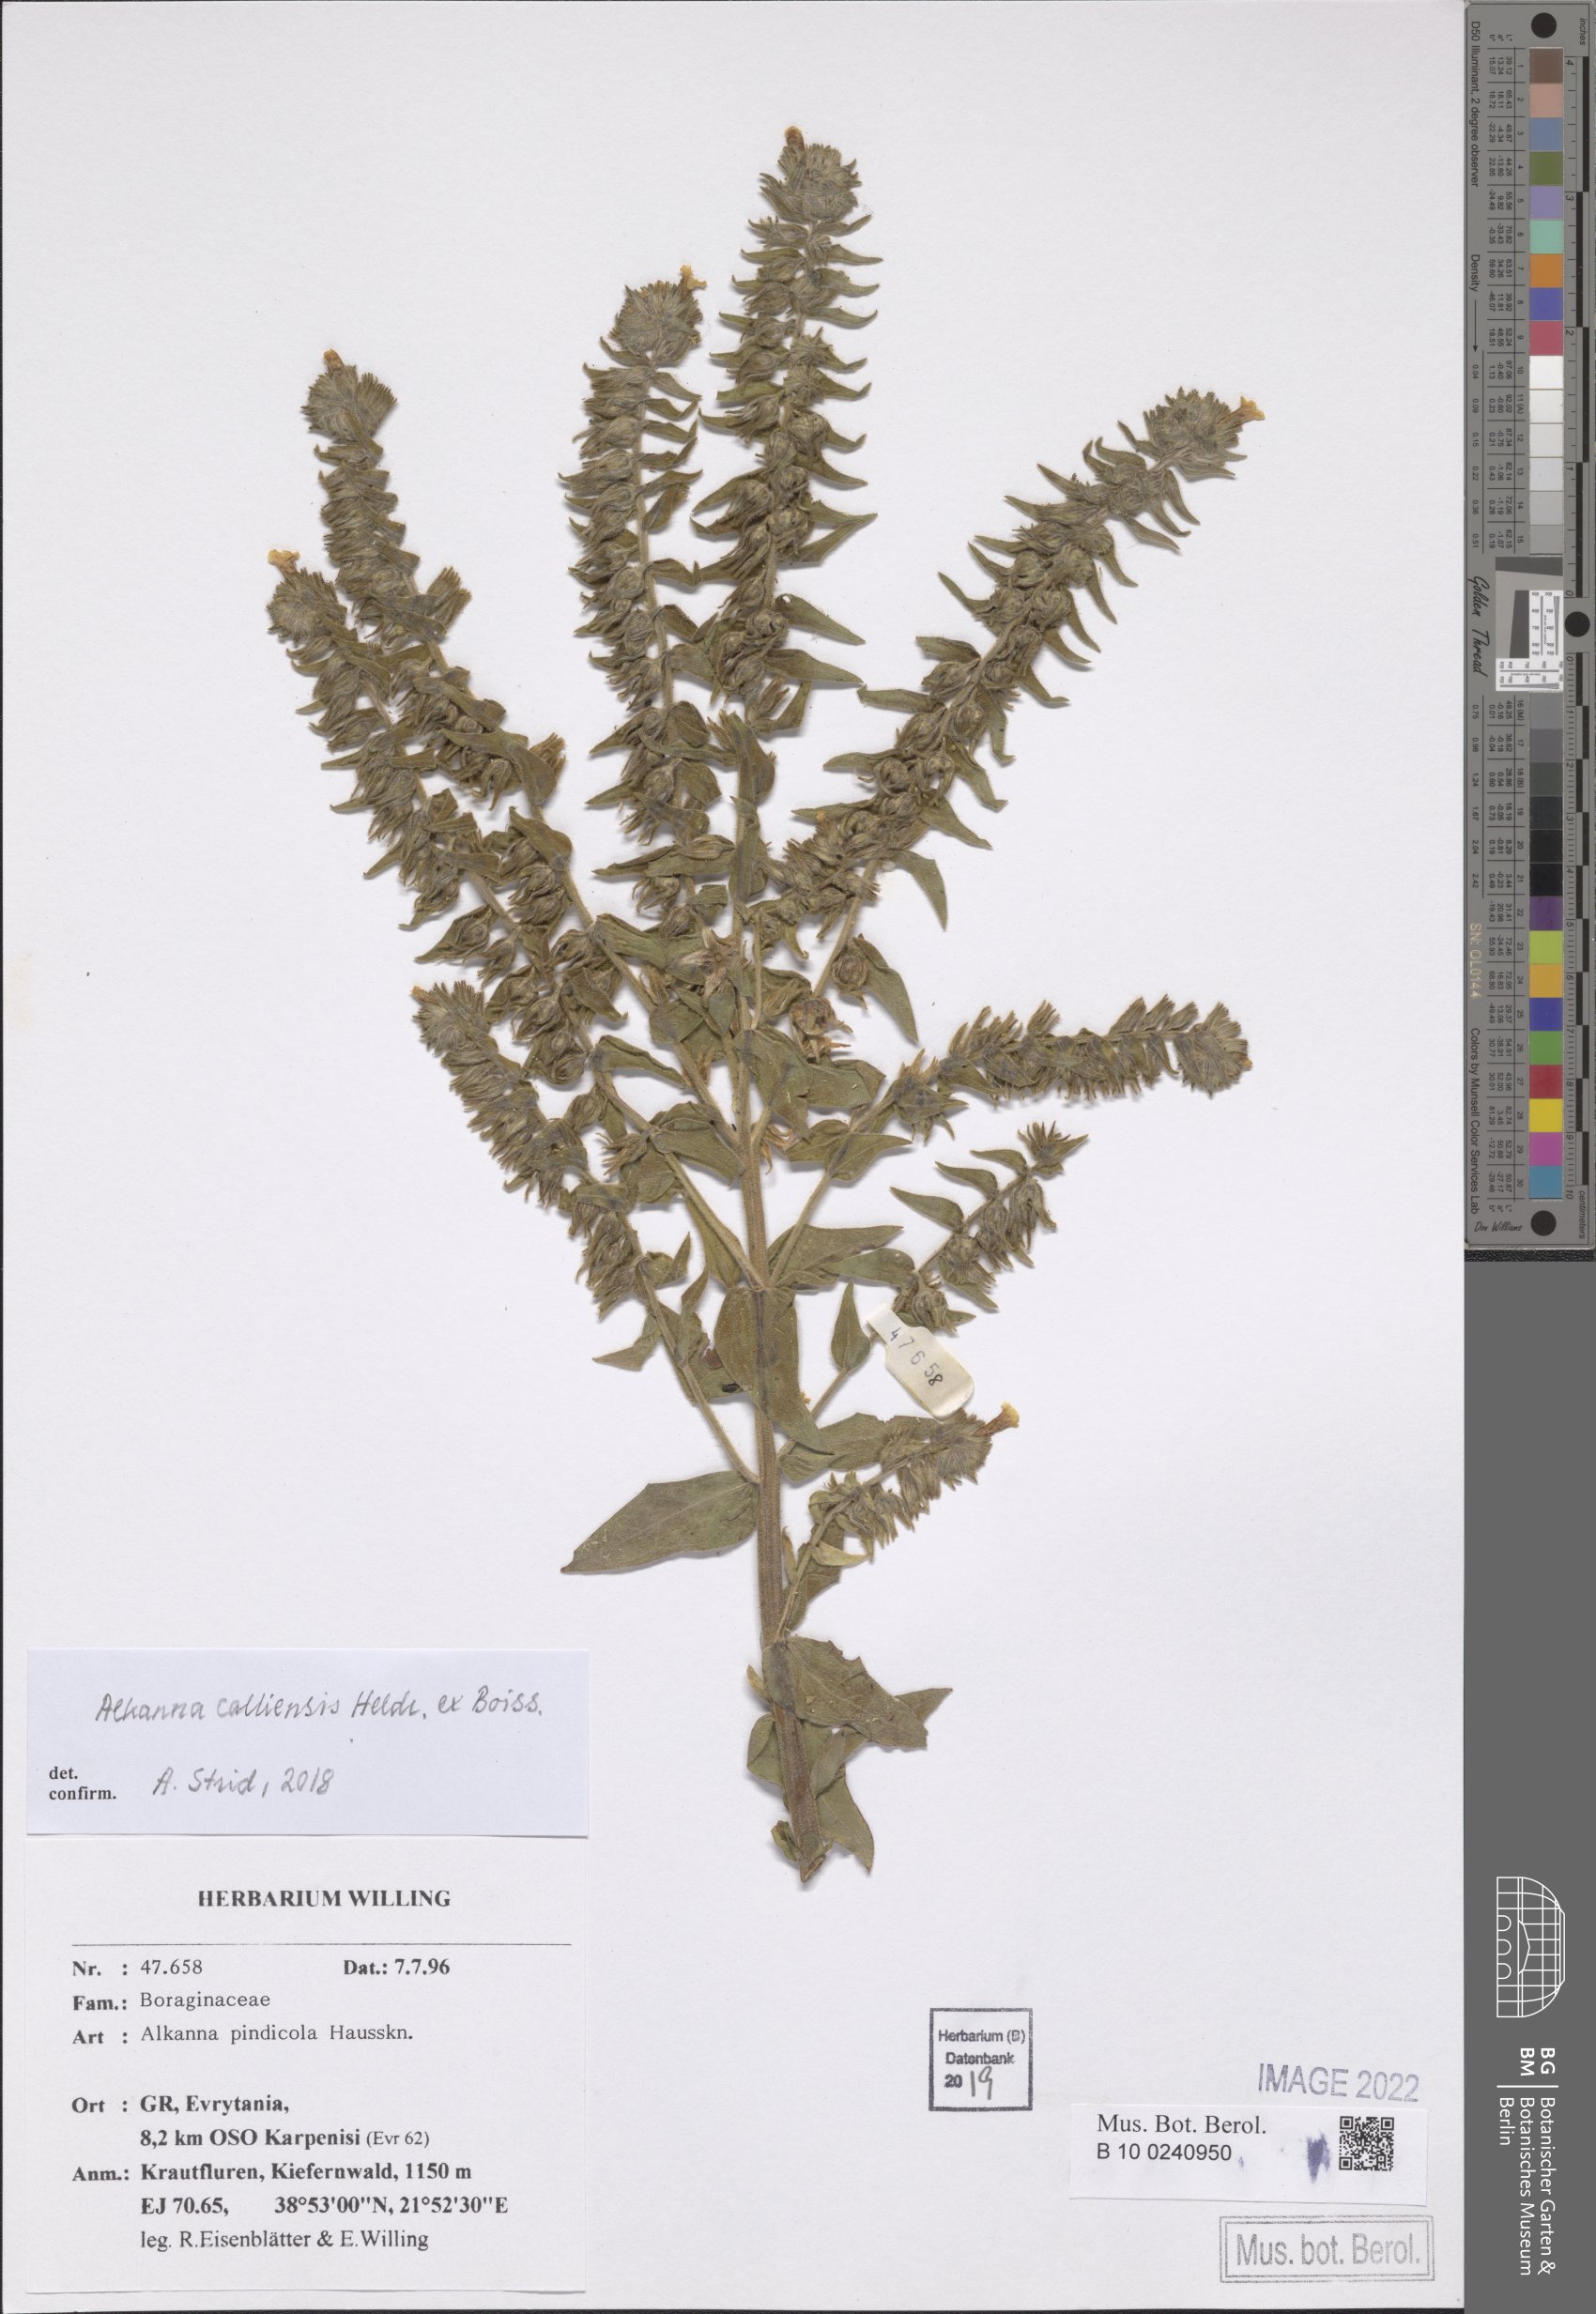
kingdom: Plantae
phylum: Tracheophyta
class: Magnoliopsida
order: Boraginales
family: Boraginaceae
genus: Alkanna
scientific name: Alkanna calliensis
